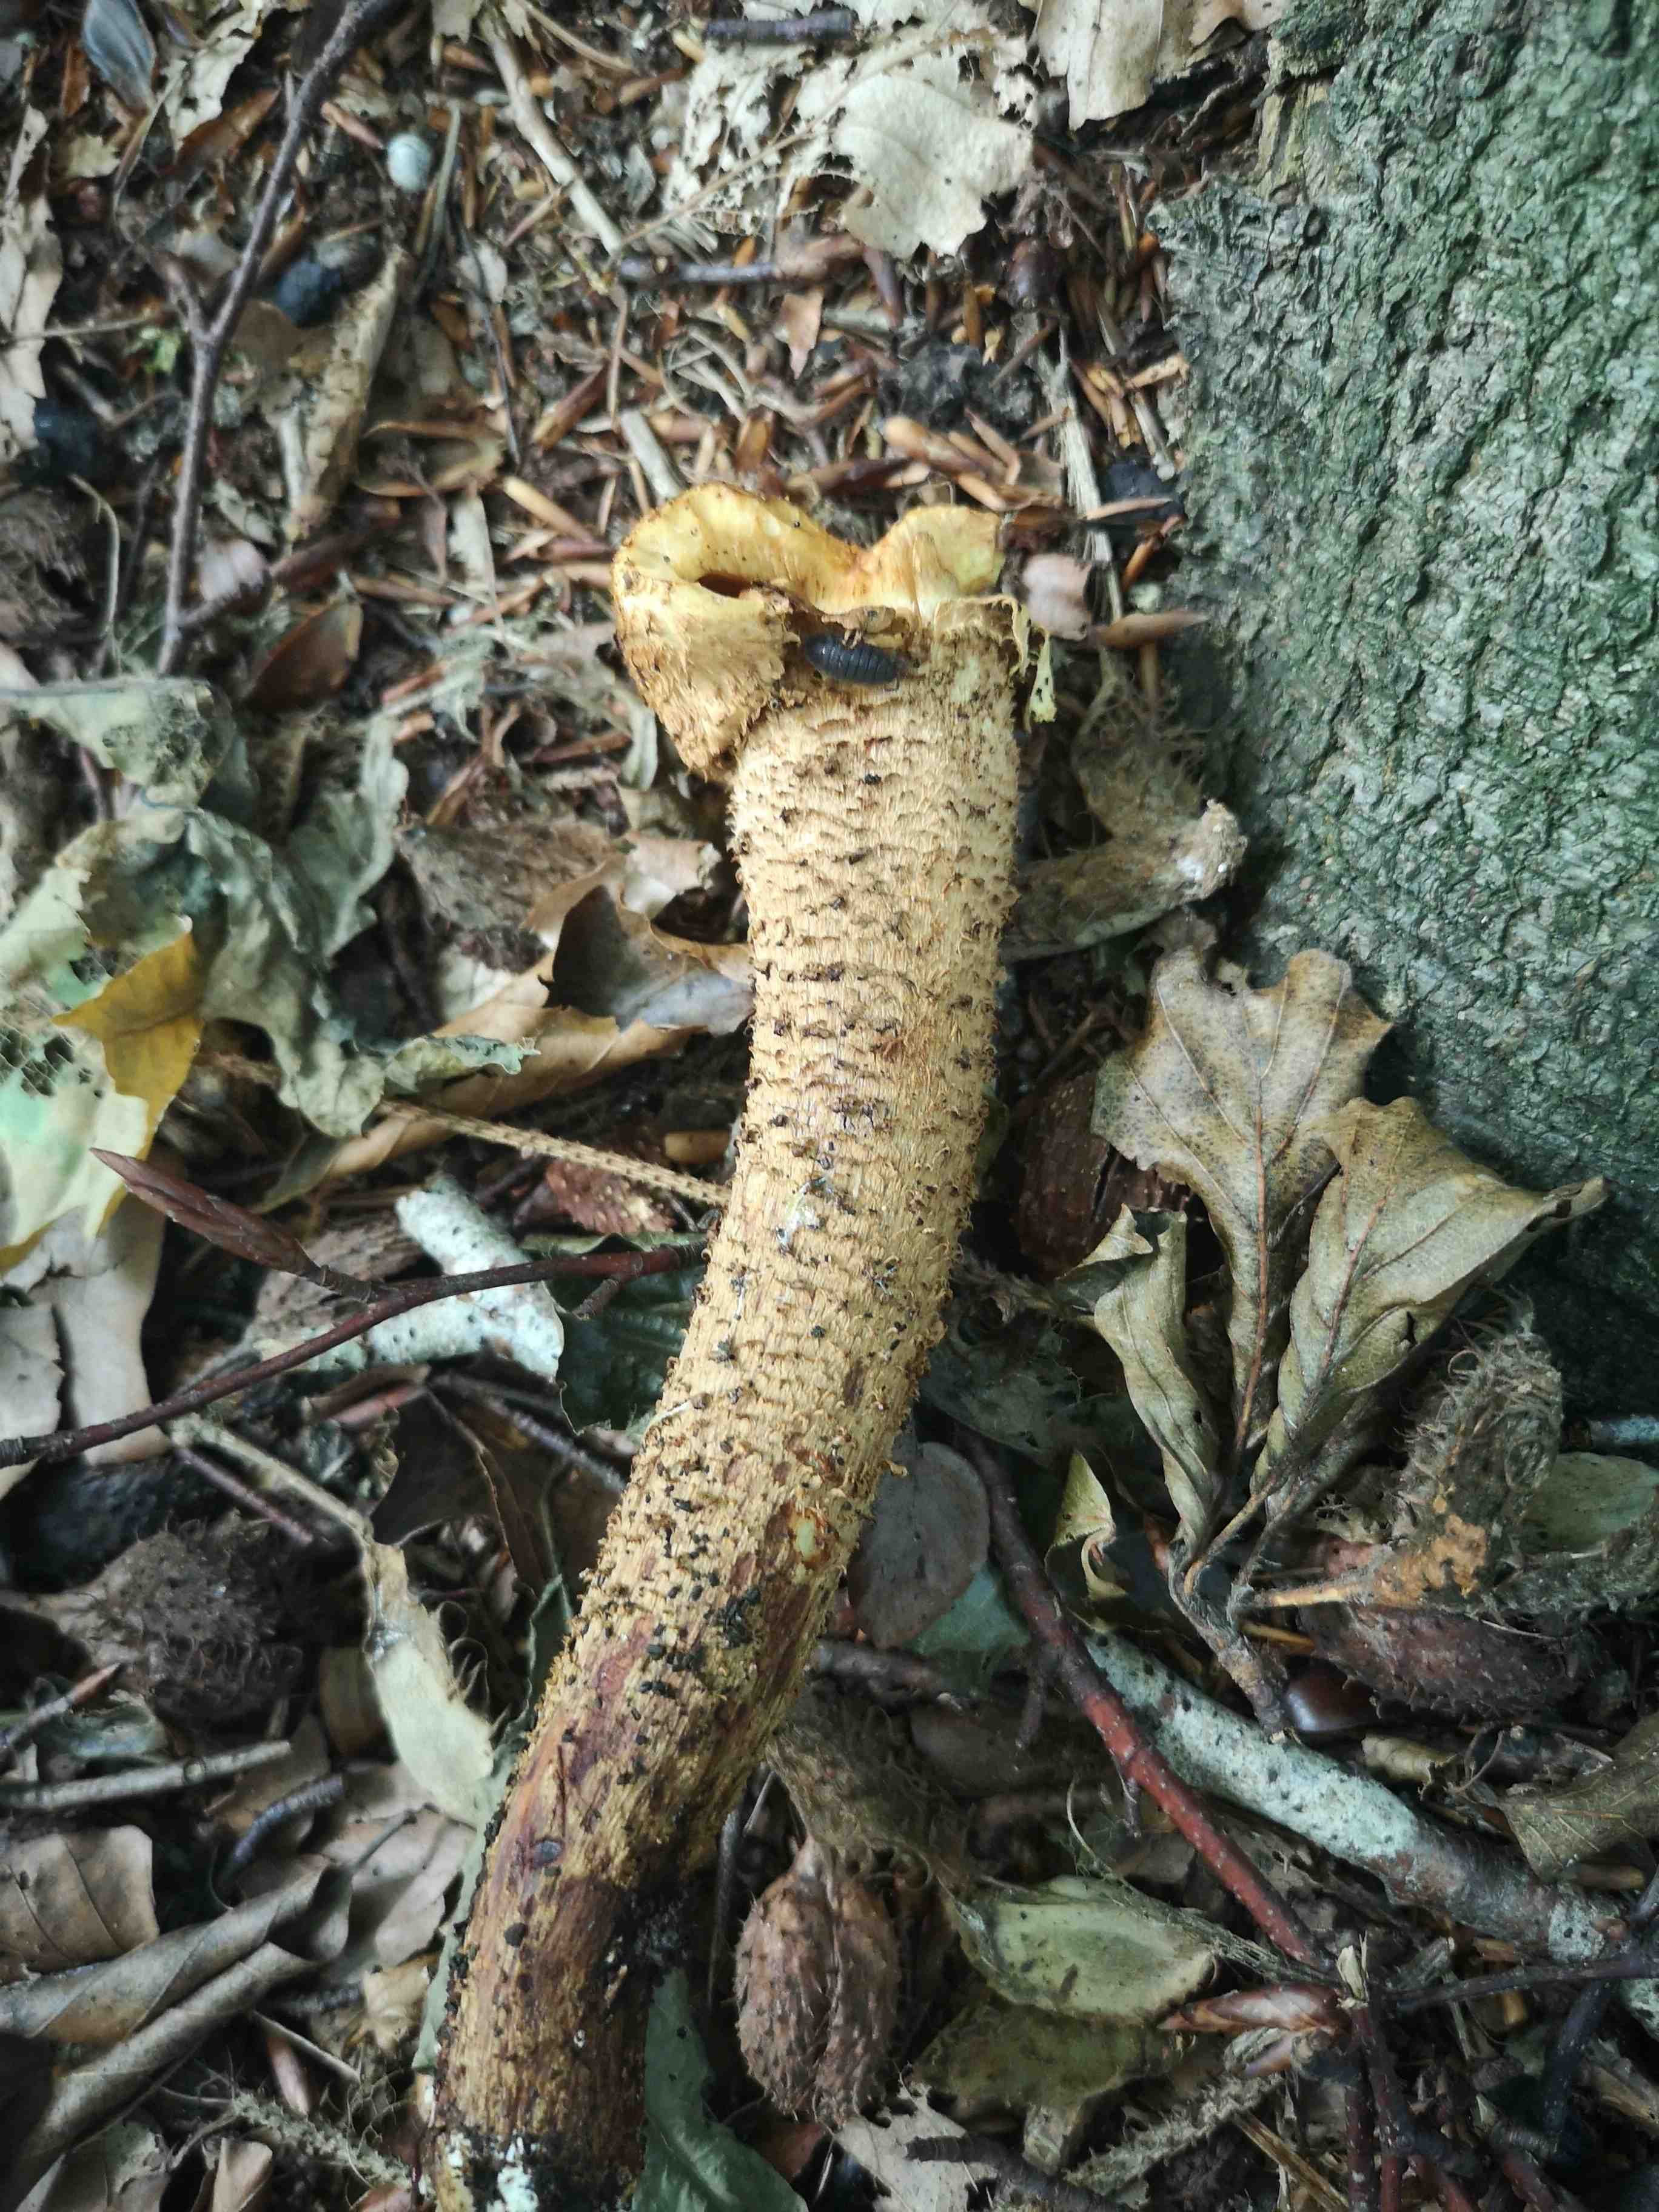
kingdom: Fungi
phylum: Basidiomycota
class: Agaricomycetes
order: Agaricales
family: Strophariaceae
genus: Pholiota
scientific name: Pholiota squarrosa
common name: krumskællet skælhat
